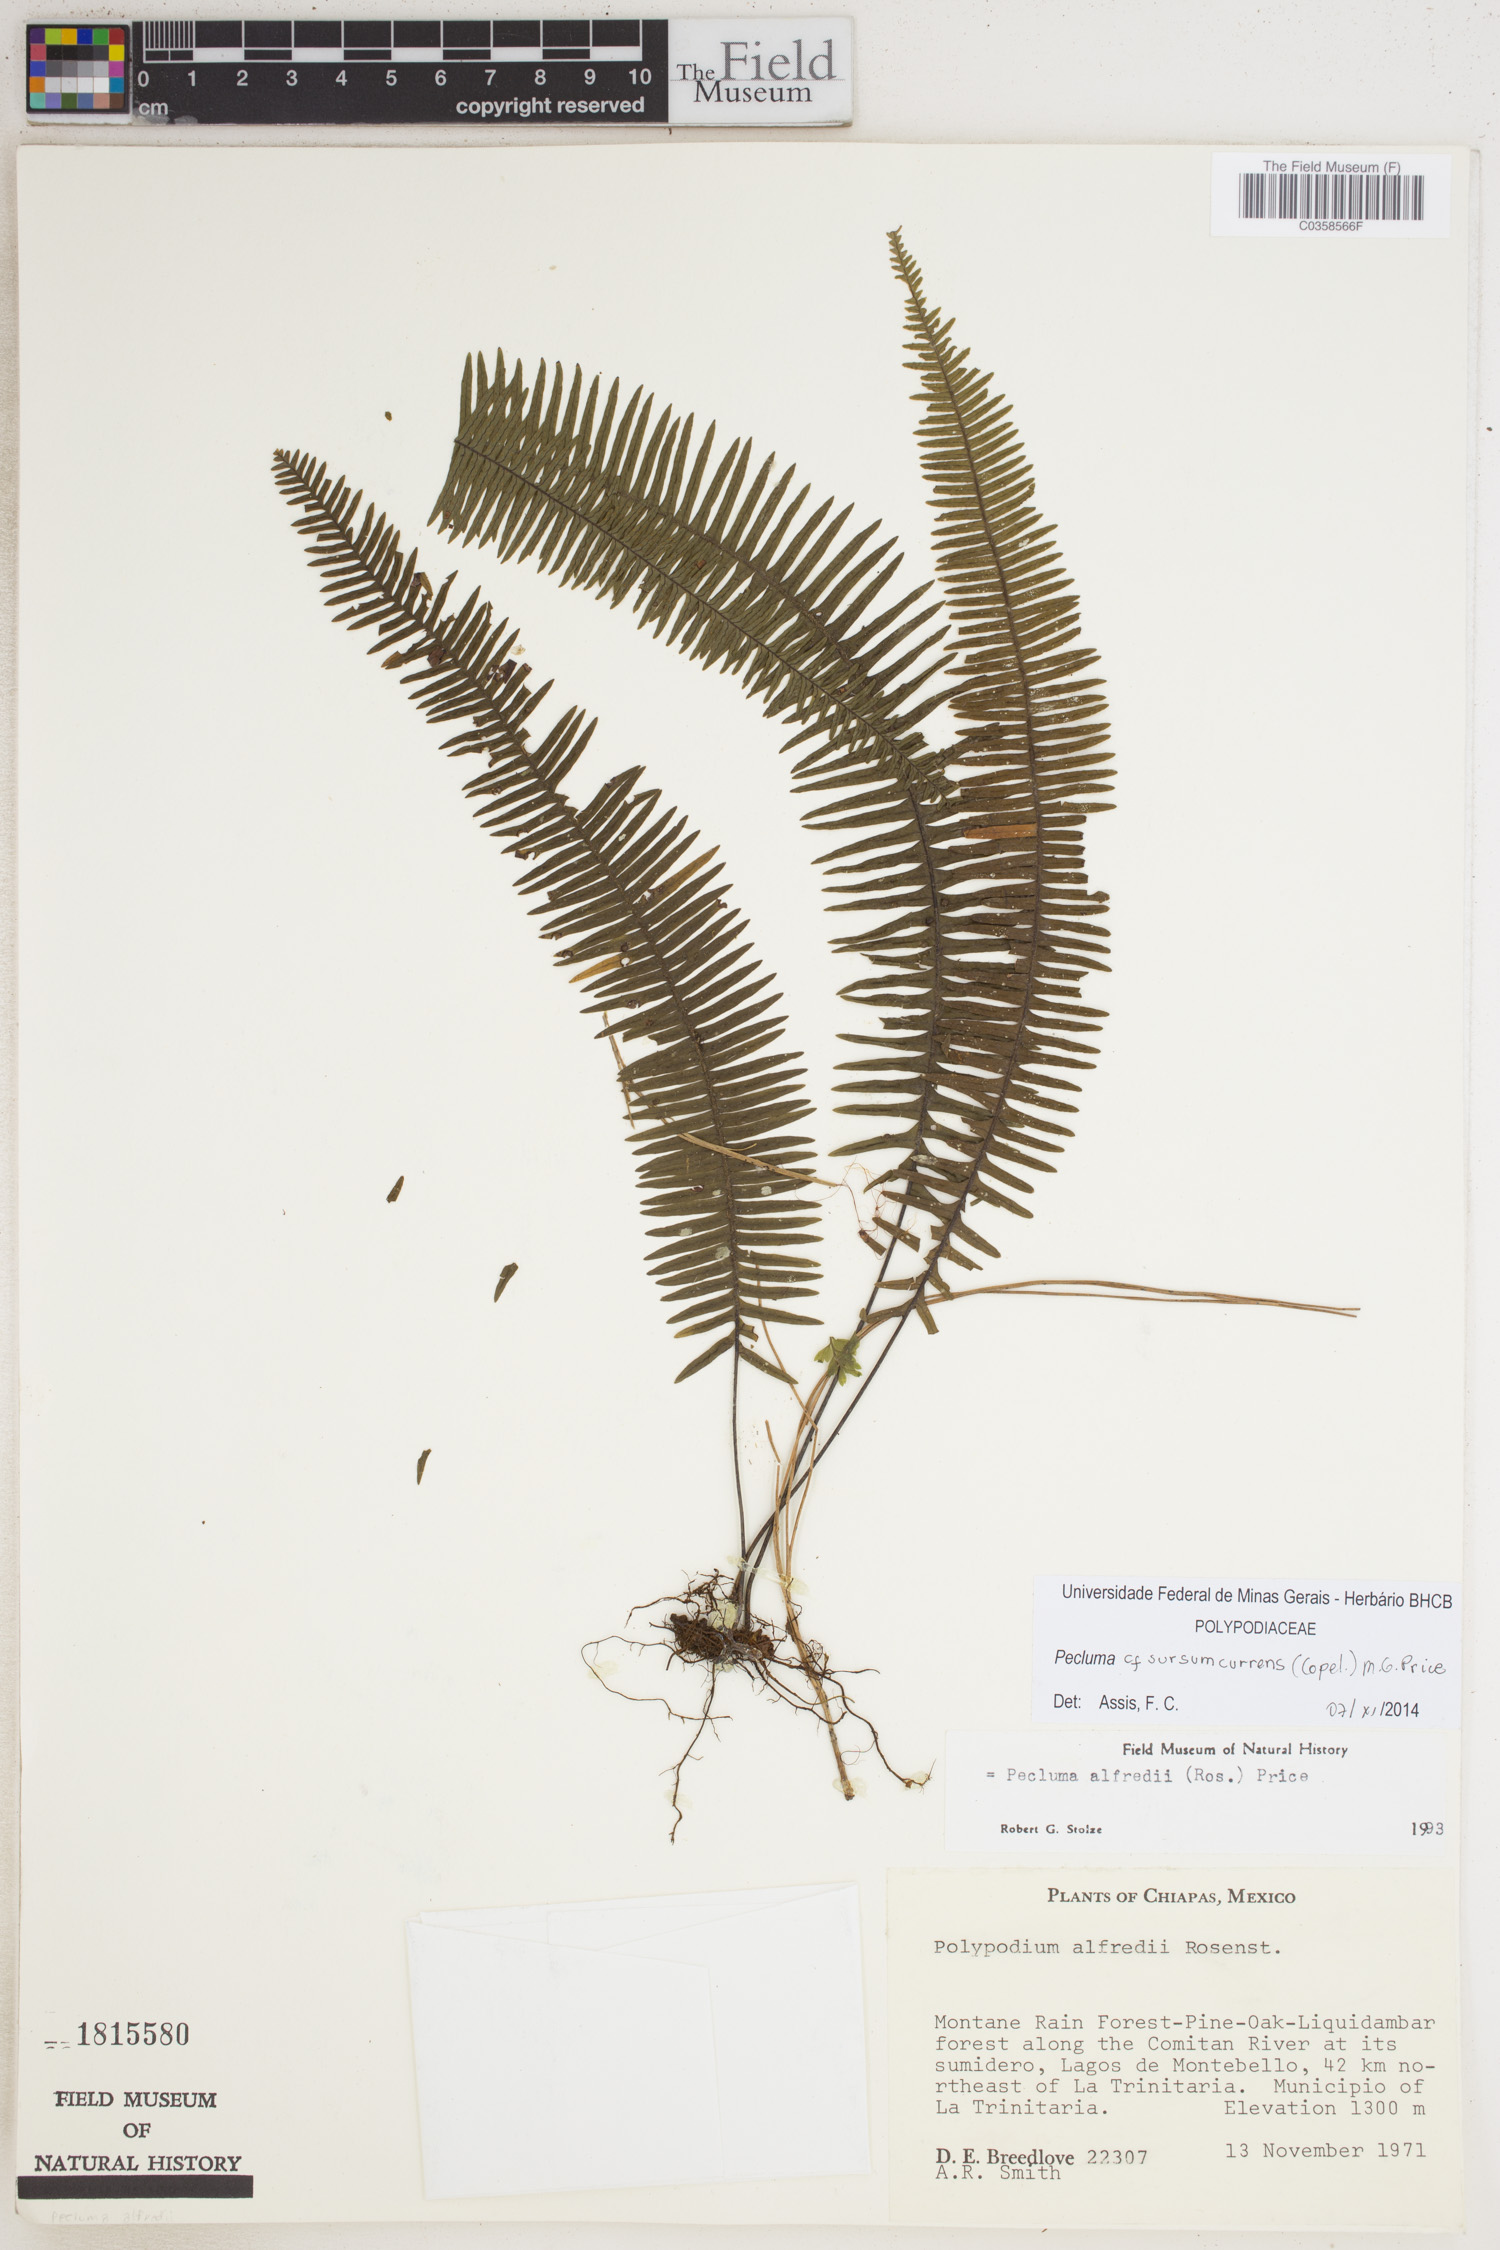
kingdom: Plantae
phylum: Tracheophyta
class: Polypodiopsida
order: Polypodiales
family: Polypodiaceae
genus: Pecluma
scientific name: Pecluma sursumcurrens
